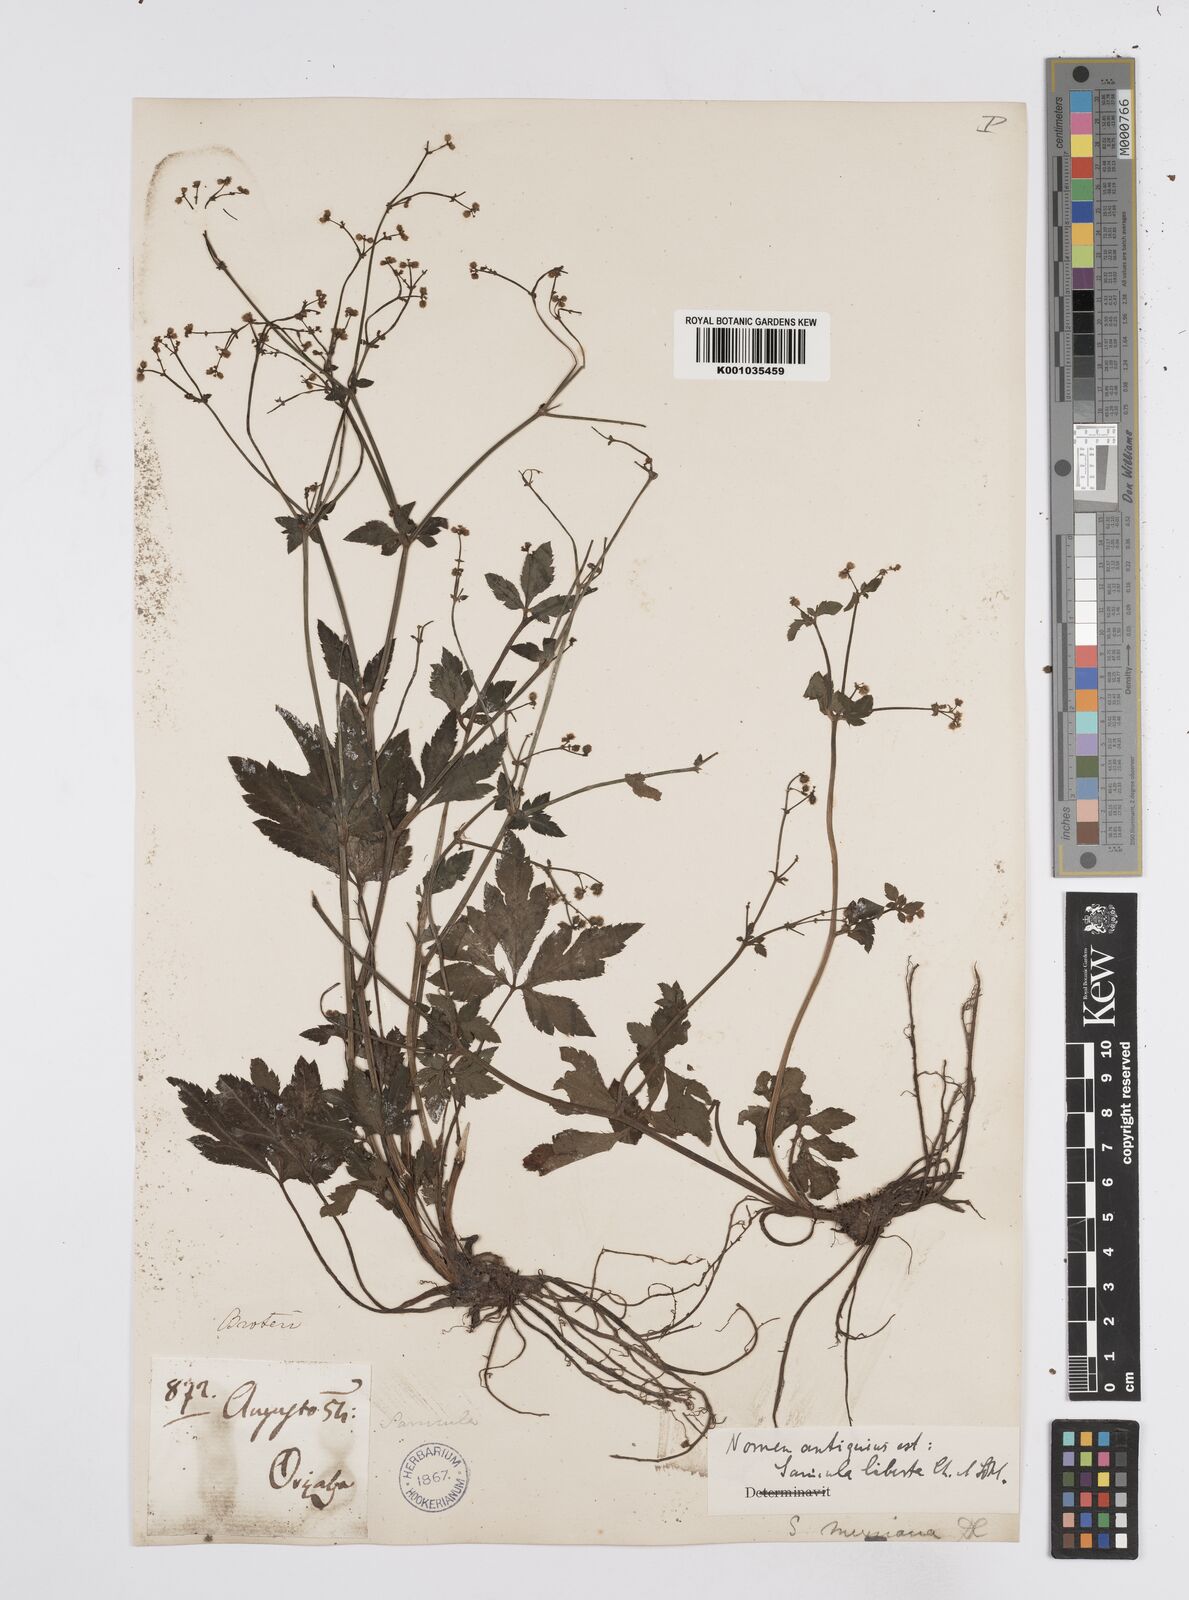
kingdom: Plantae
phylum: Tracheophyta
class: Magnoliopsida
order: Apiales
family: Apiaceae
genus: Sanicula
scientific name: Sanicula liberta
